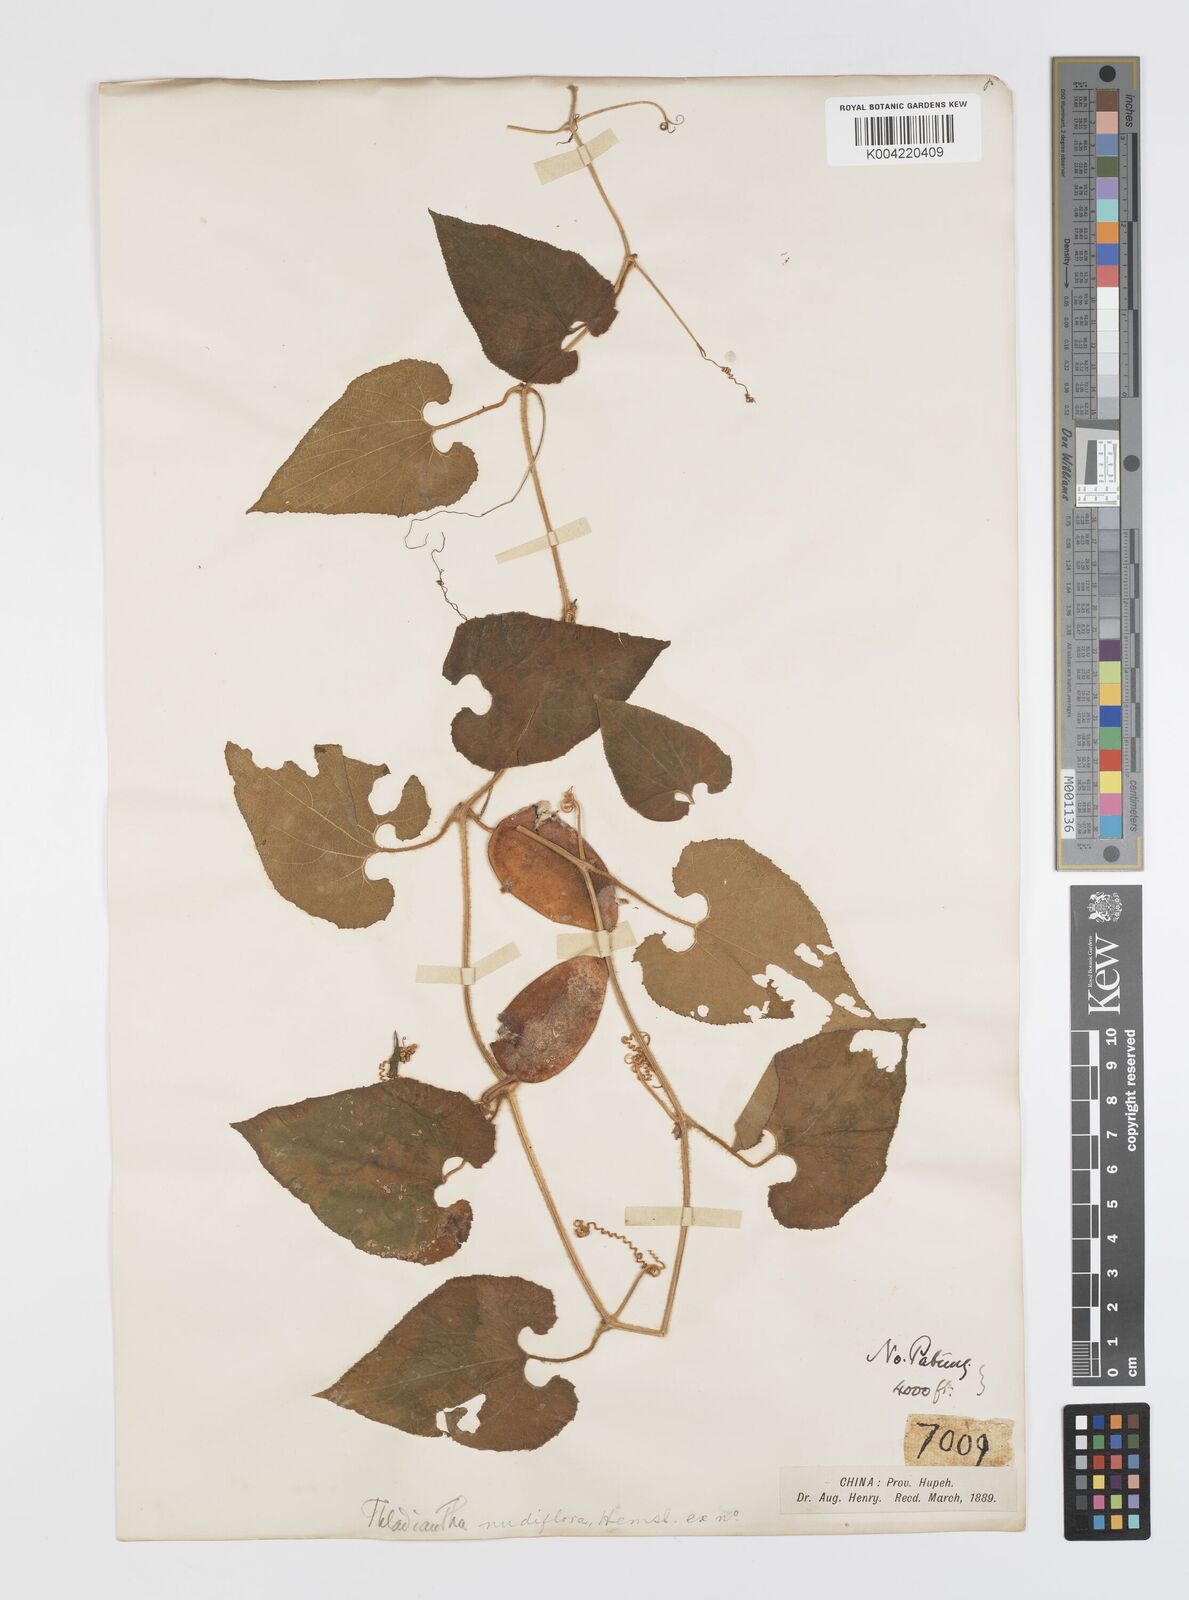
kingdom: Plantae
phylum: Tracheophyta
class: Magnoliopsida
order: Cucurbitales
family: Cucurbitaceae
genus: Thladiantha
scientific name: Thladiantha nudiflora
